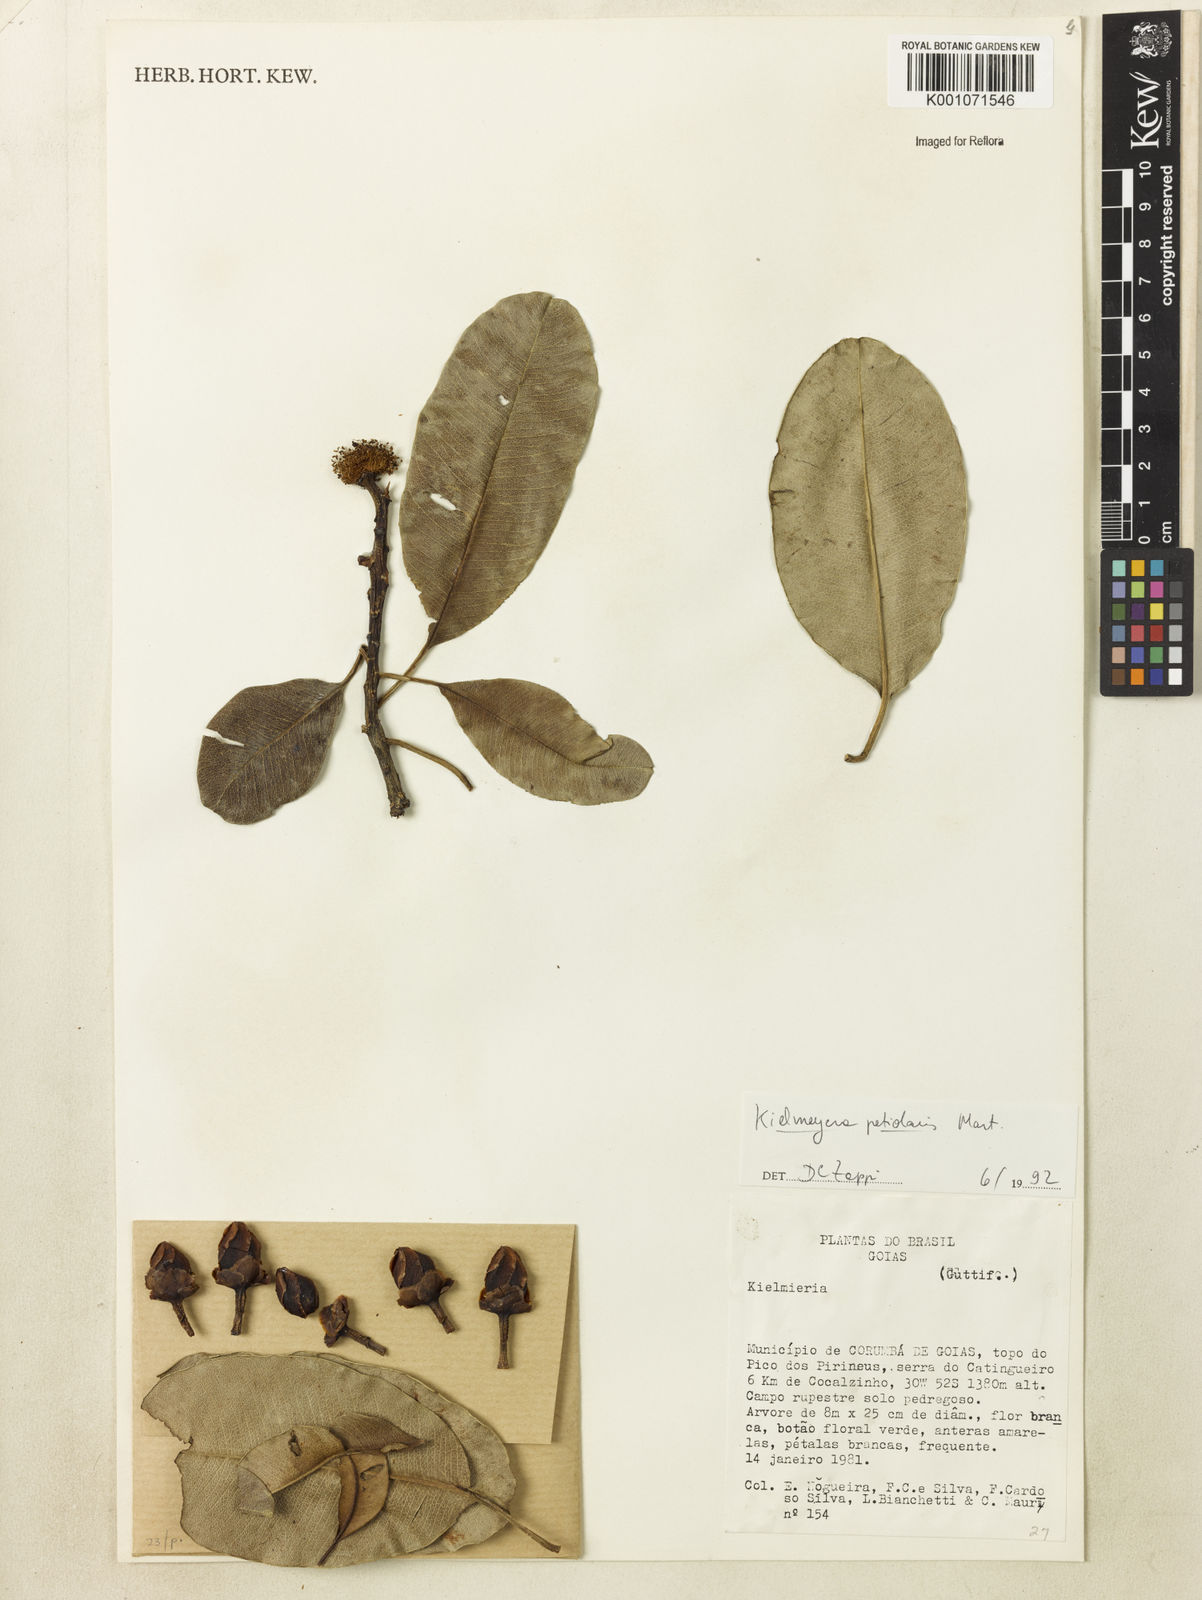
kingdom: Plantae
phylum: Tracheophyta
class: Magnoliopsida
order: Malpighiales
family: Calophyllaceae
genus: Kielmeyera
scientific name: Kielmeyera petiolaris
